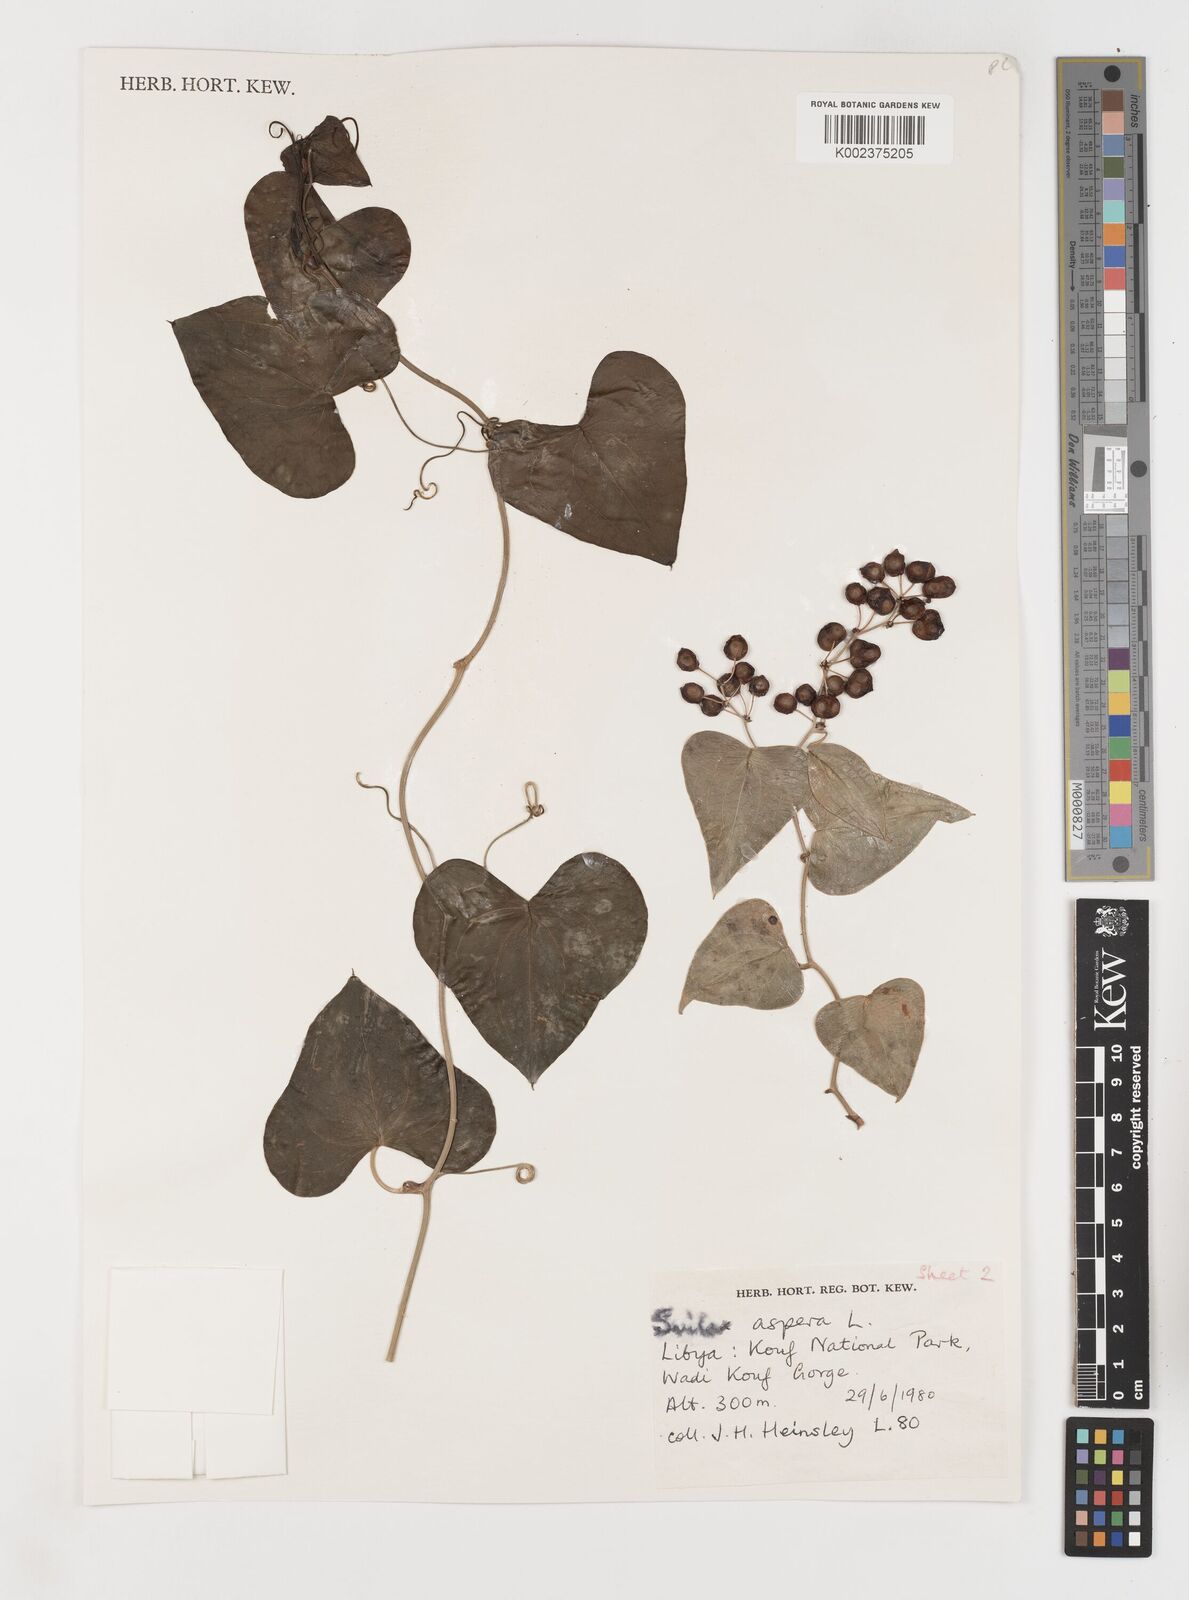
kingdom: Plantae
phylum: Tracheophyta
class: Liliopsida
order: Liliales
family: Smilacaceae
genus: Smilax
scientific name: Smilax aspera
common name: Common smilax
